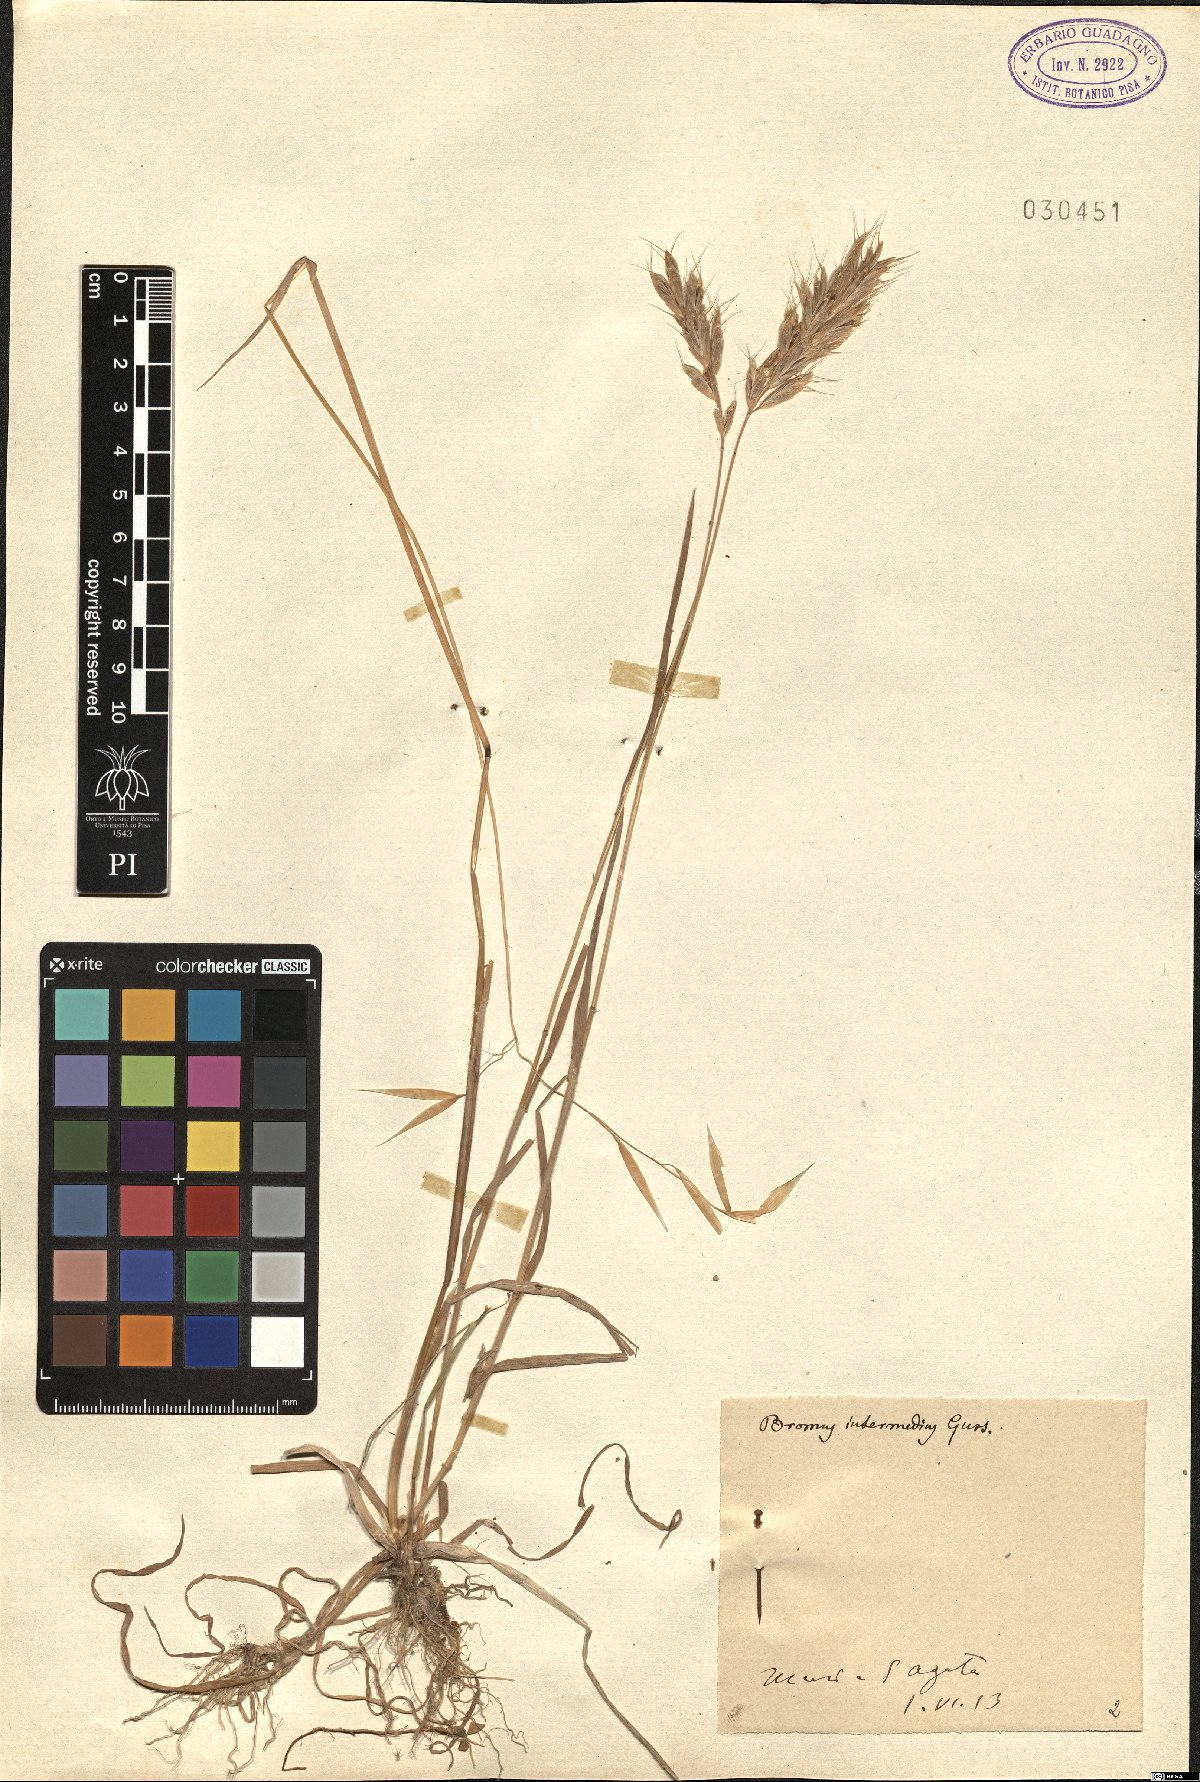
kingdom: Plantae
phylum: Tracheophyta
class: Liliopsida
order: Poales
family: Poaceae
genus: Bromus
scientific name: Bromus intermedius
